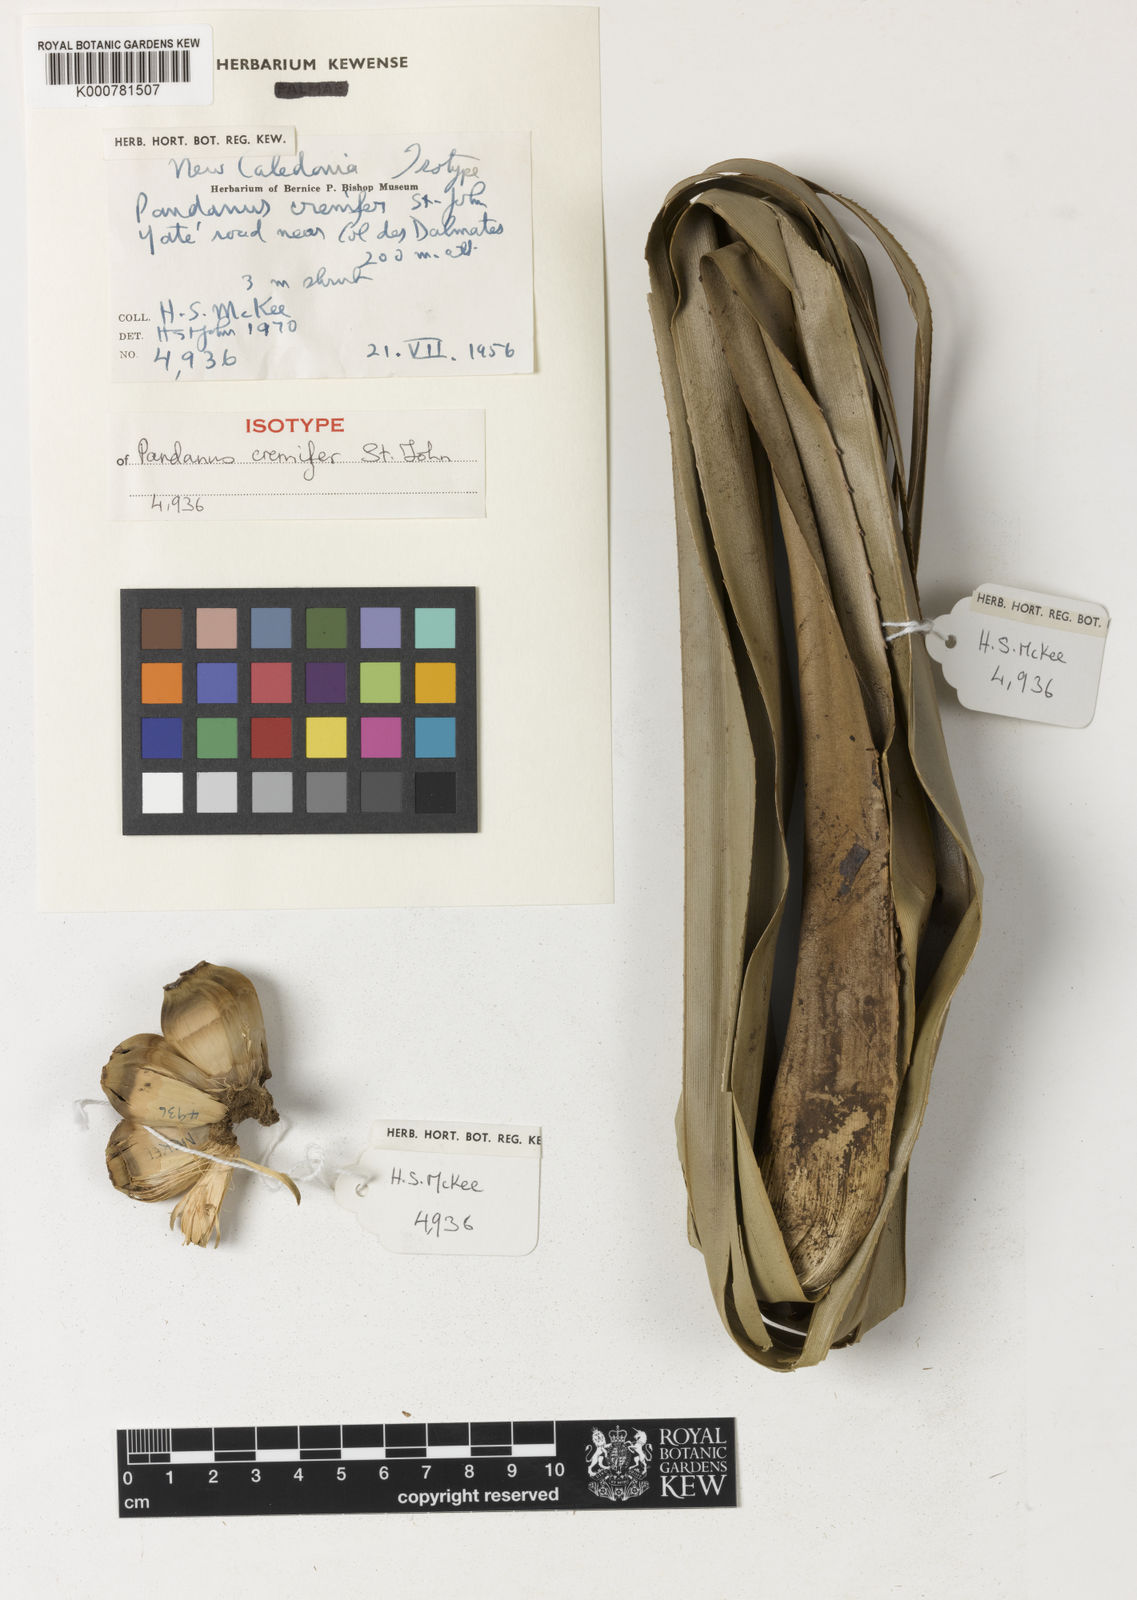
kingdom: Plantae
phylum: Tracheophyta
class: Liliopsida
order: Pandanales
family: Pandanaceae
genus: Pandanus
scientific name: Pandanus crenifer
